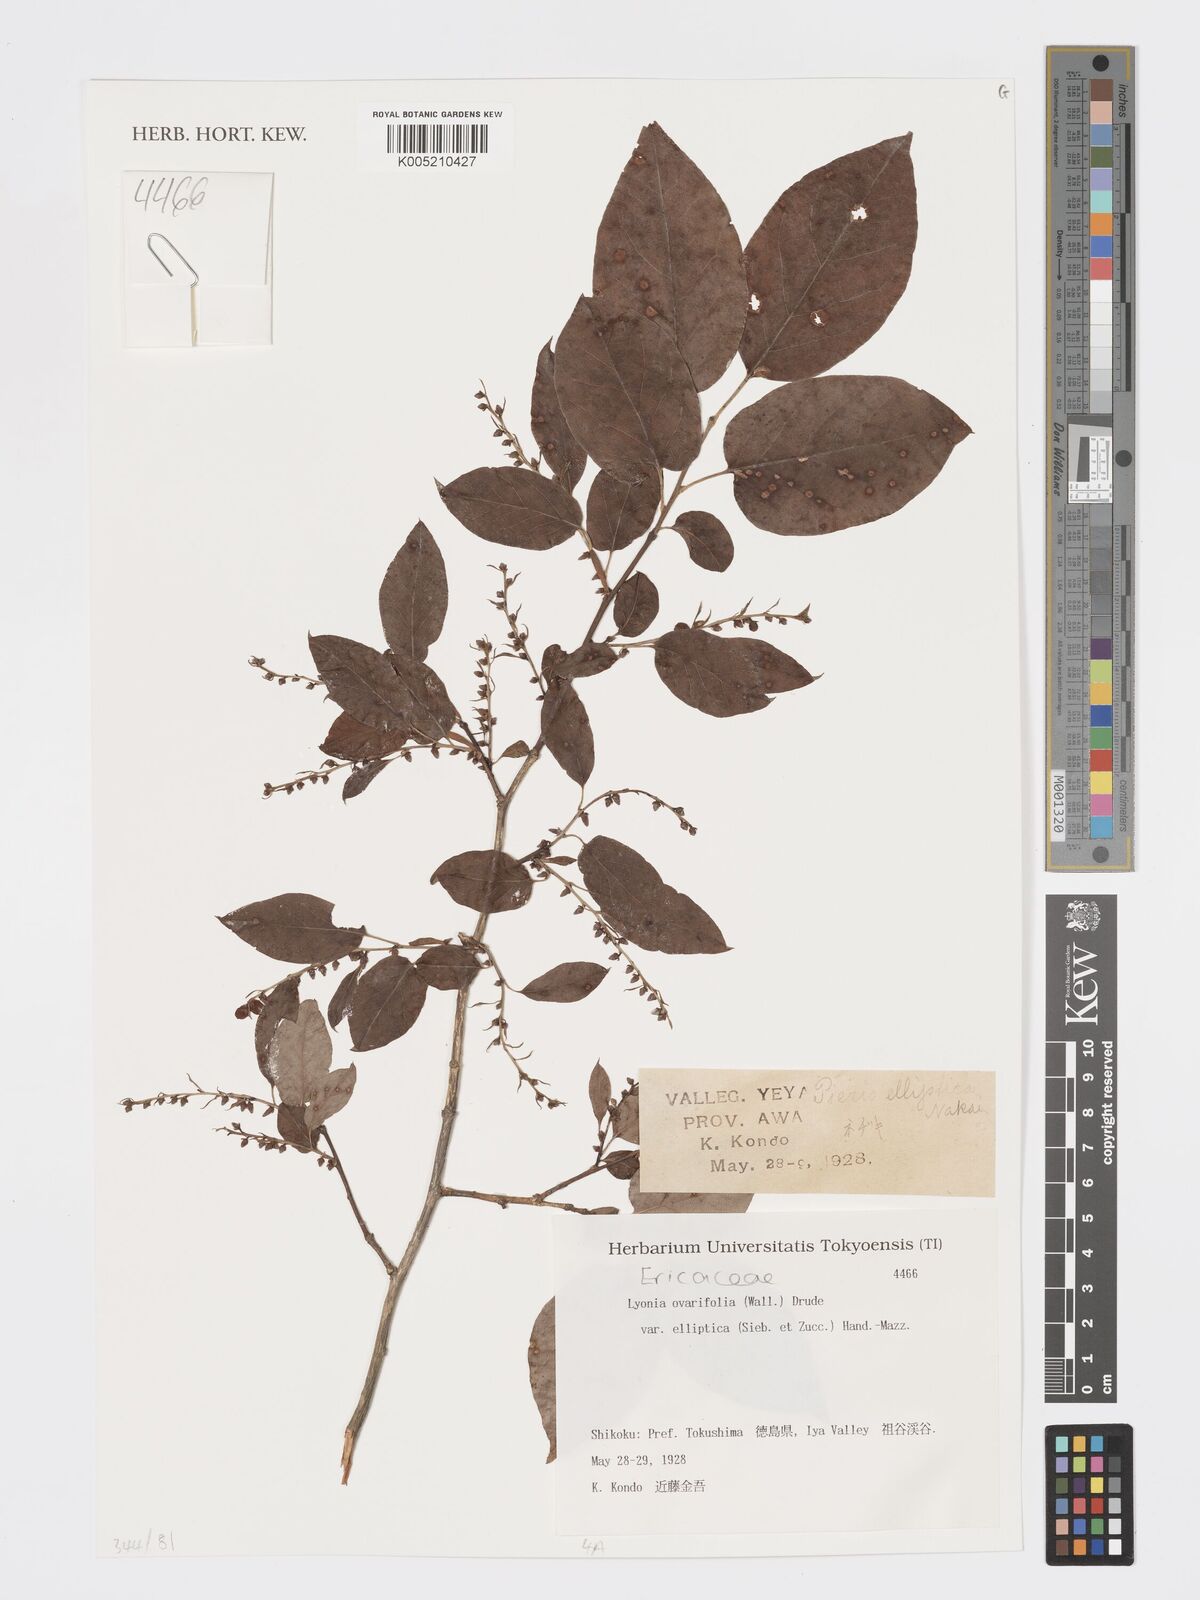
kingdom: Plantae
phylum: Tracheophyta
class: Magnoliopsida
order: Ericales
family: Ericaceae
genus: Lyonia
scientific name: Lyonia elliptica
